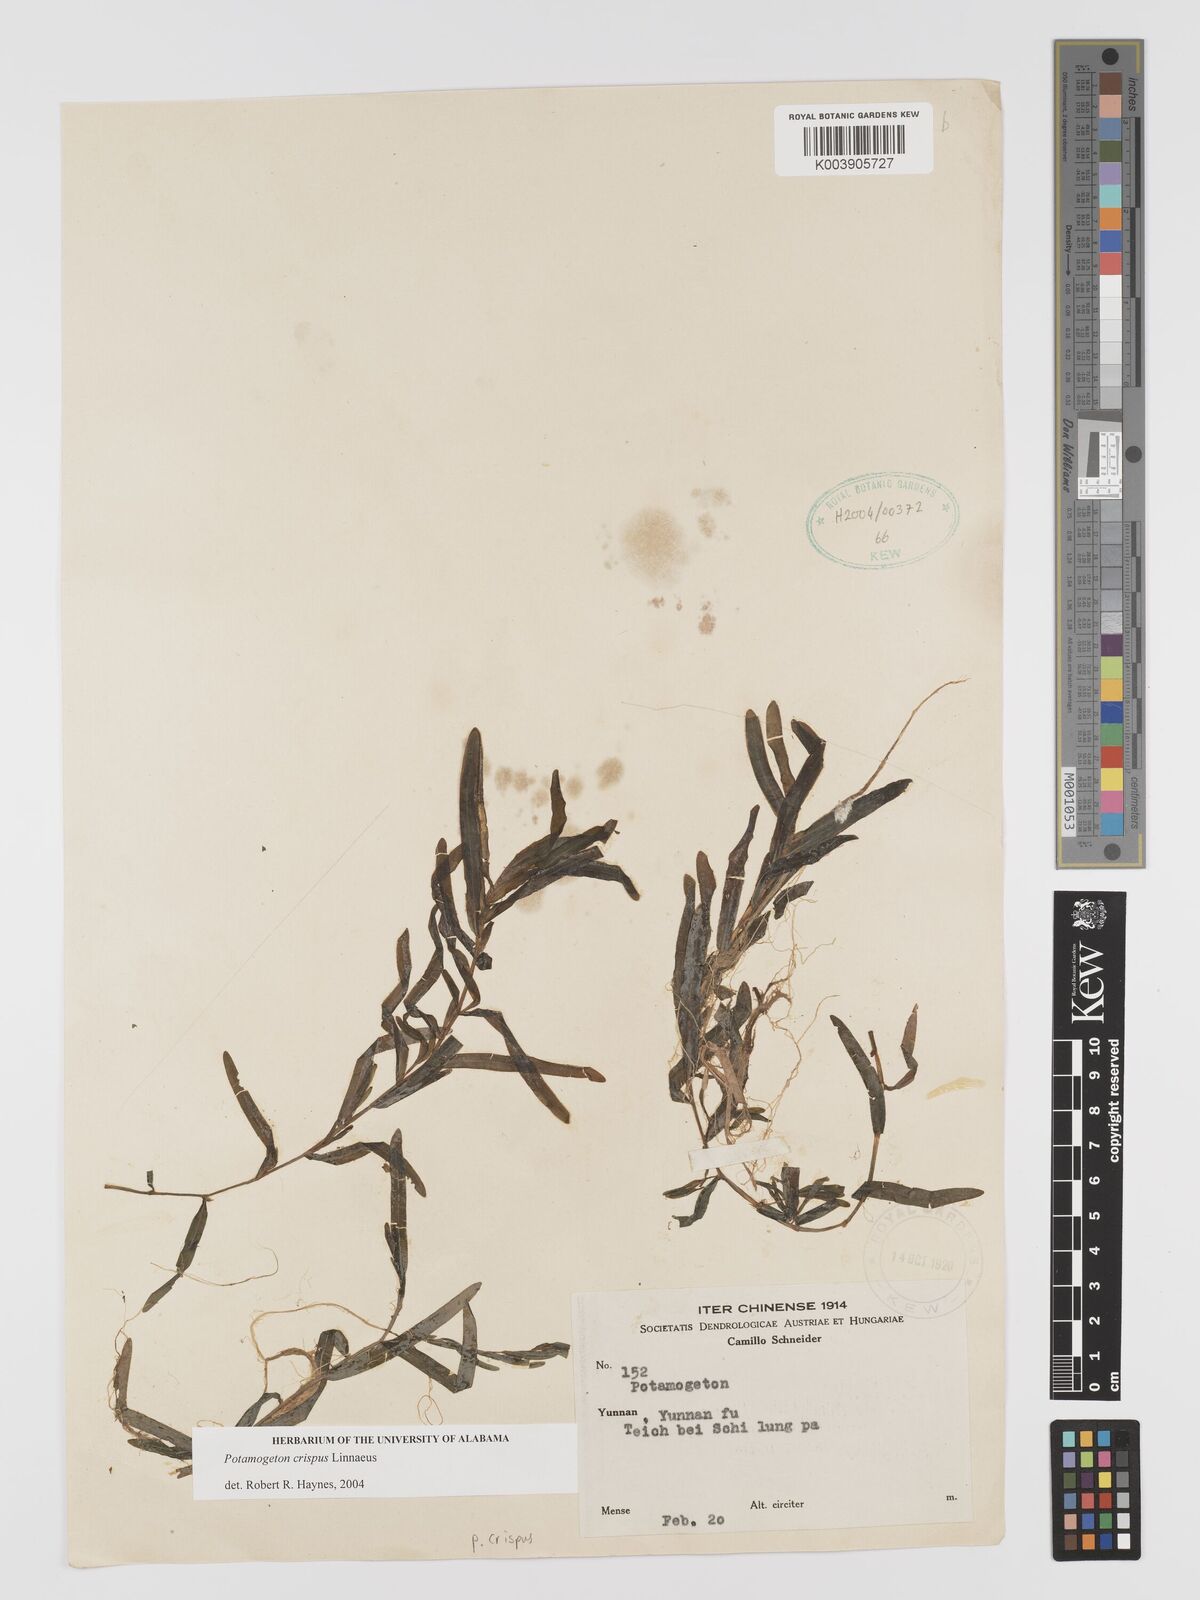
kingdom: Plantae
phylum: Tracheophyta
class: Liliopsida
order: Alismatales
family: Potamogetonaceae
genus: Potamogeton
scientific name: Potamogeton crispus
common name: Curled pondweed
